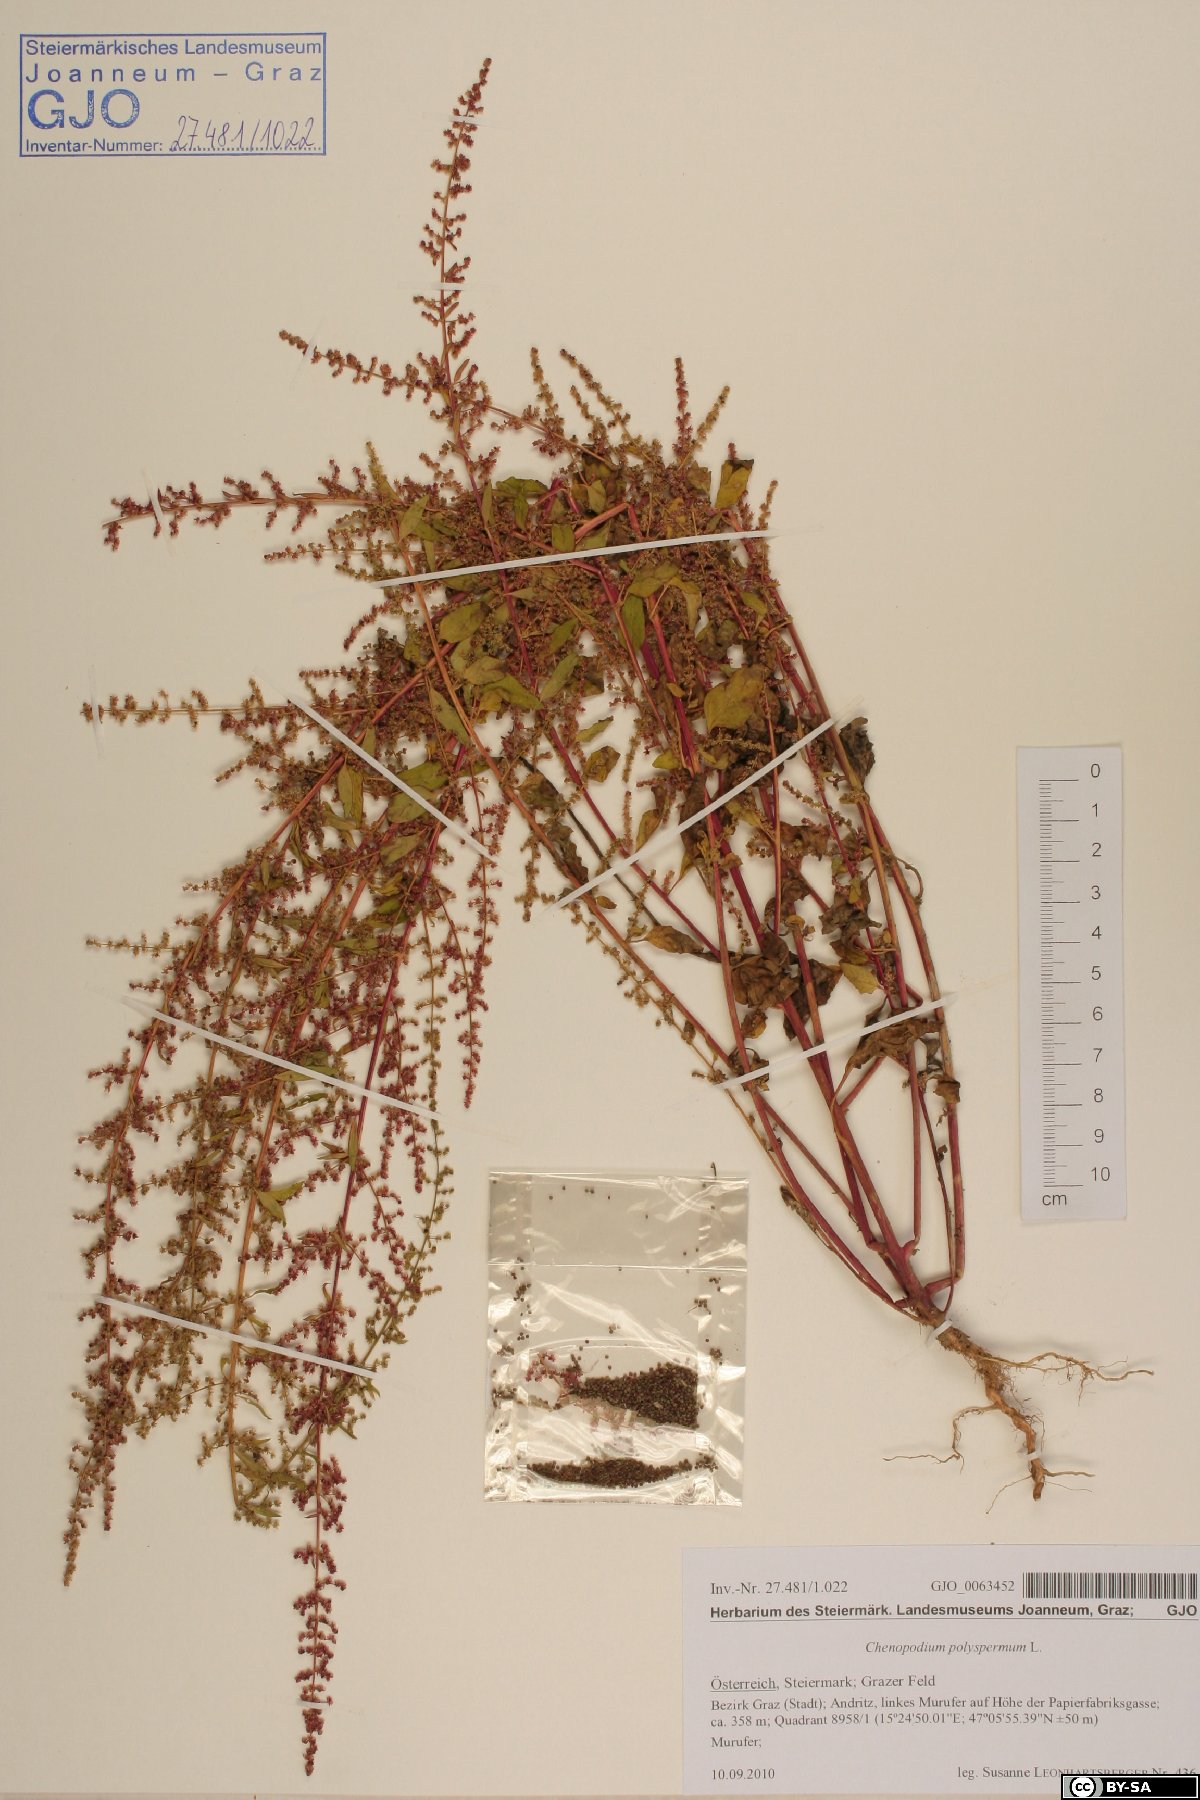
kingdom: Plantae
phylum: Tracheophyta
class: Magnoliopsida
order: Caryophyllales
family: Amaranthaceae
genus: Lipandra
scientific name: Lipandra polysperma
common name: Many-seed goosefoot
